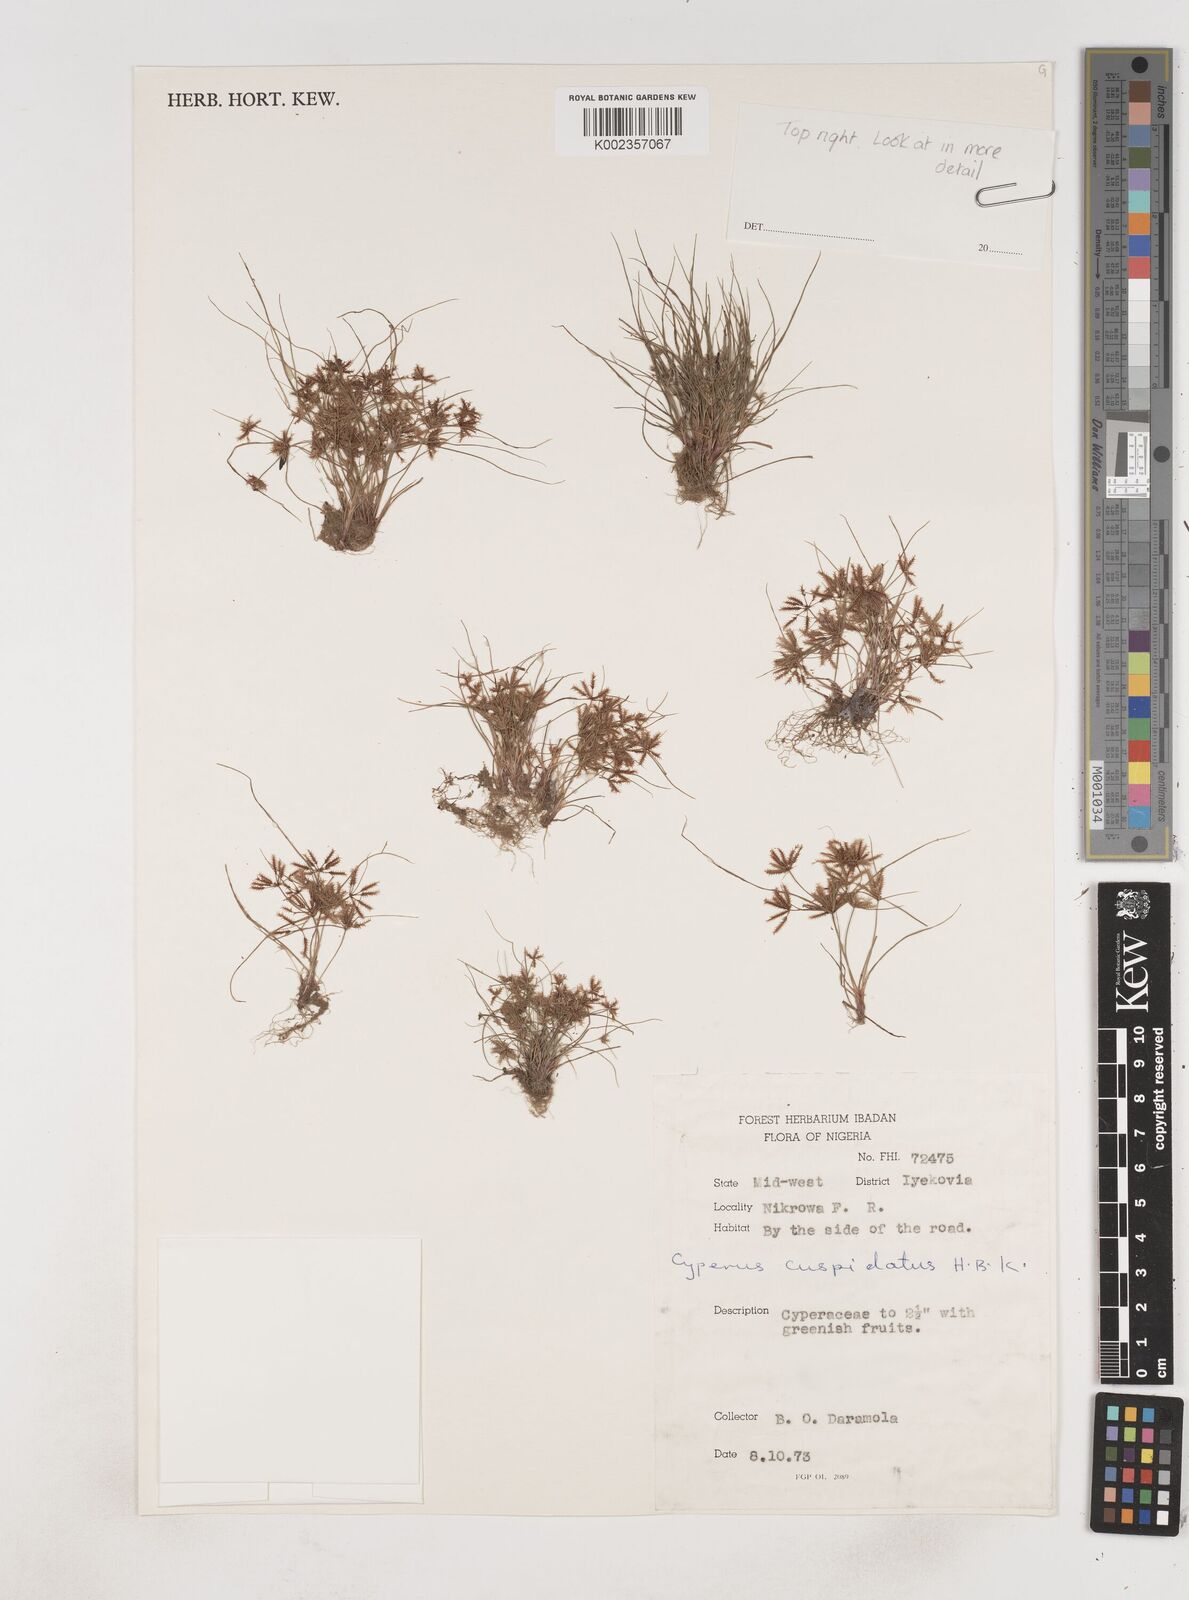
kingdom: Plantae
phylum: Tracheophyta
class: Liliopsida
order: Poales
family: Cyperaceae
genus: Cyperus
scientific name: Cyperus
